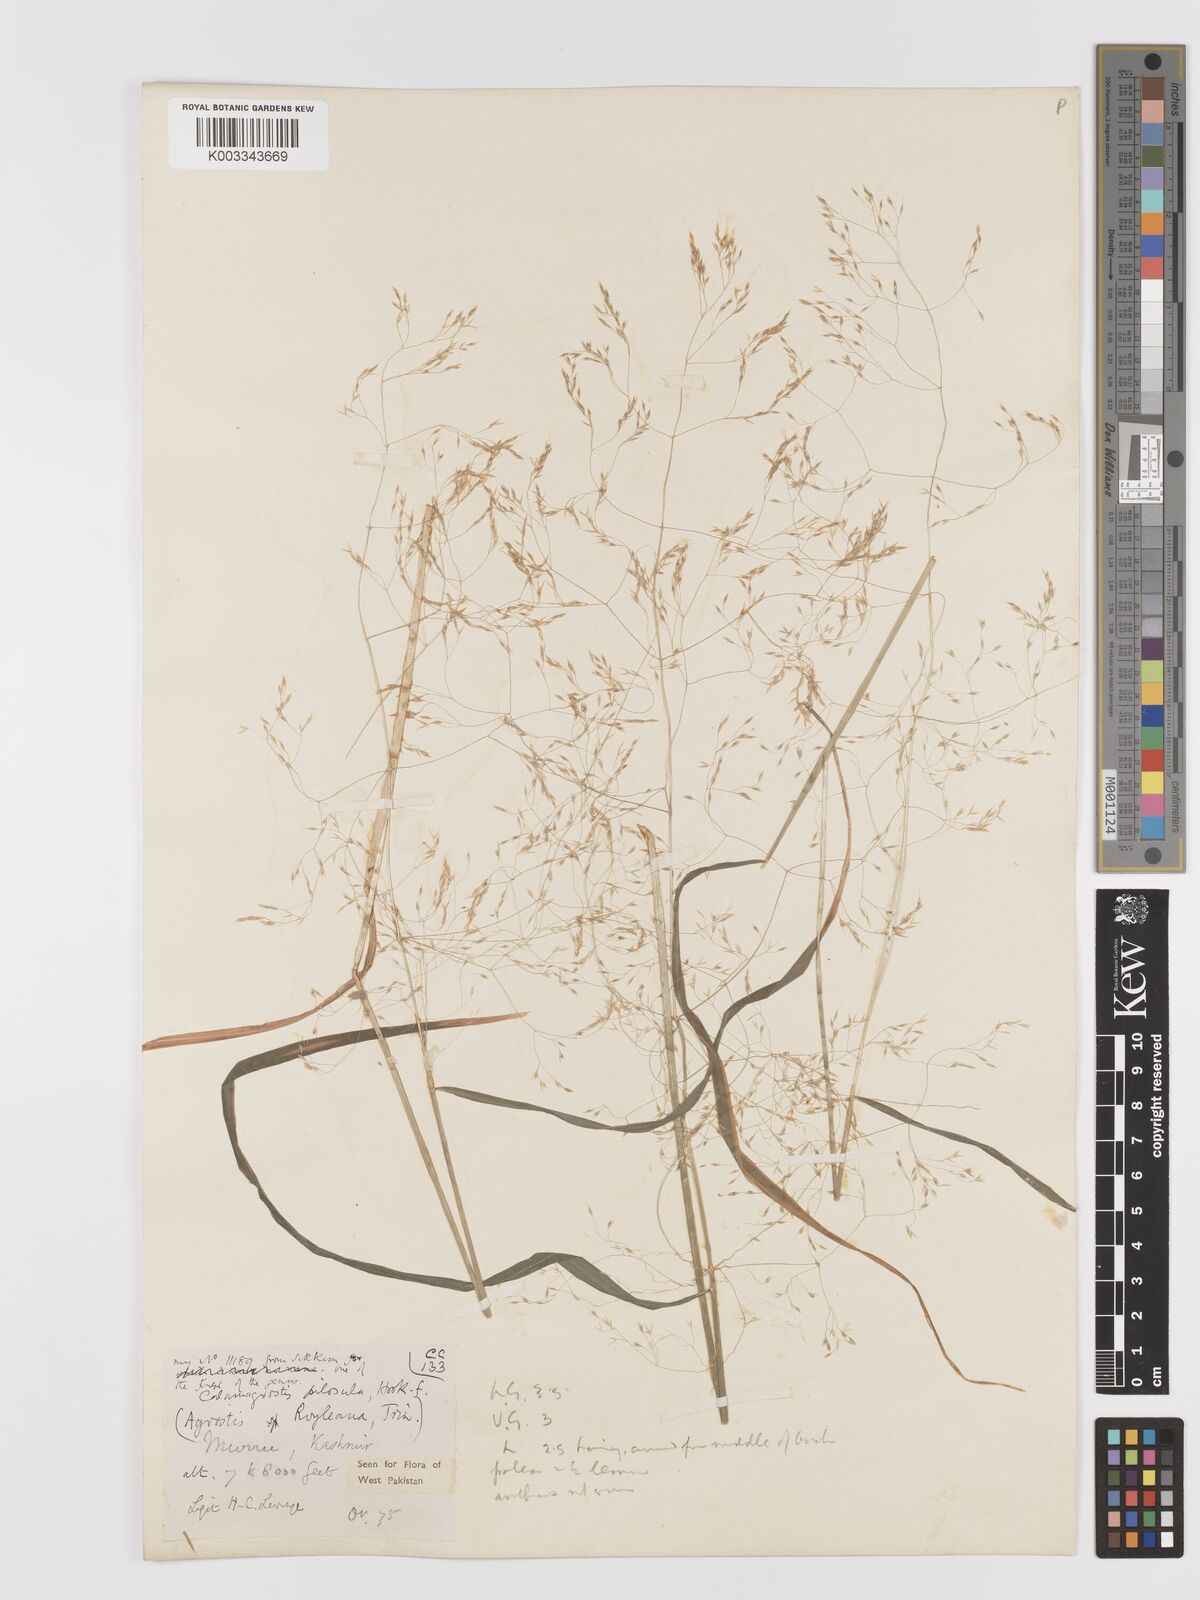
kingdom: Plantae
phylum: Tracheophyta
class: Liliopsida
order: Poales
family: Poaceae
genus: Agrostis
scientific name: Agrostis pilosula
